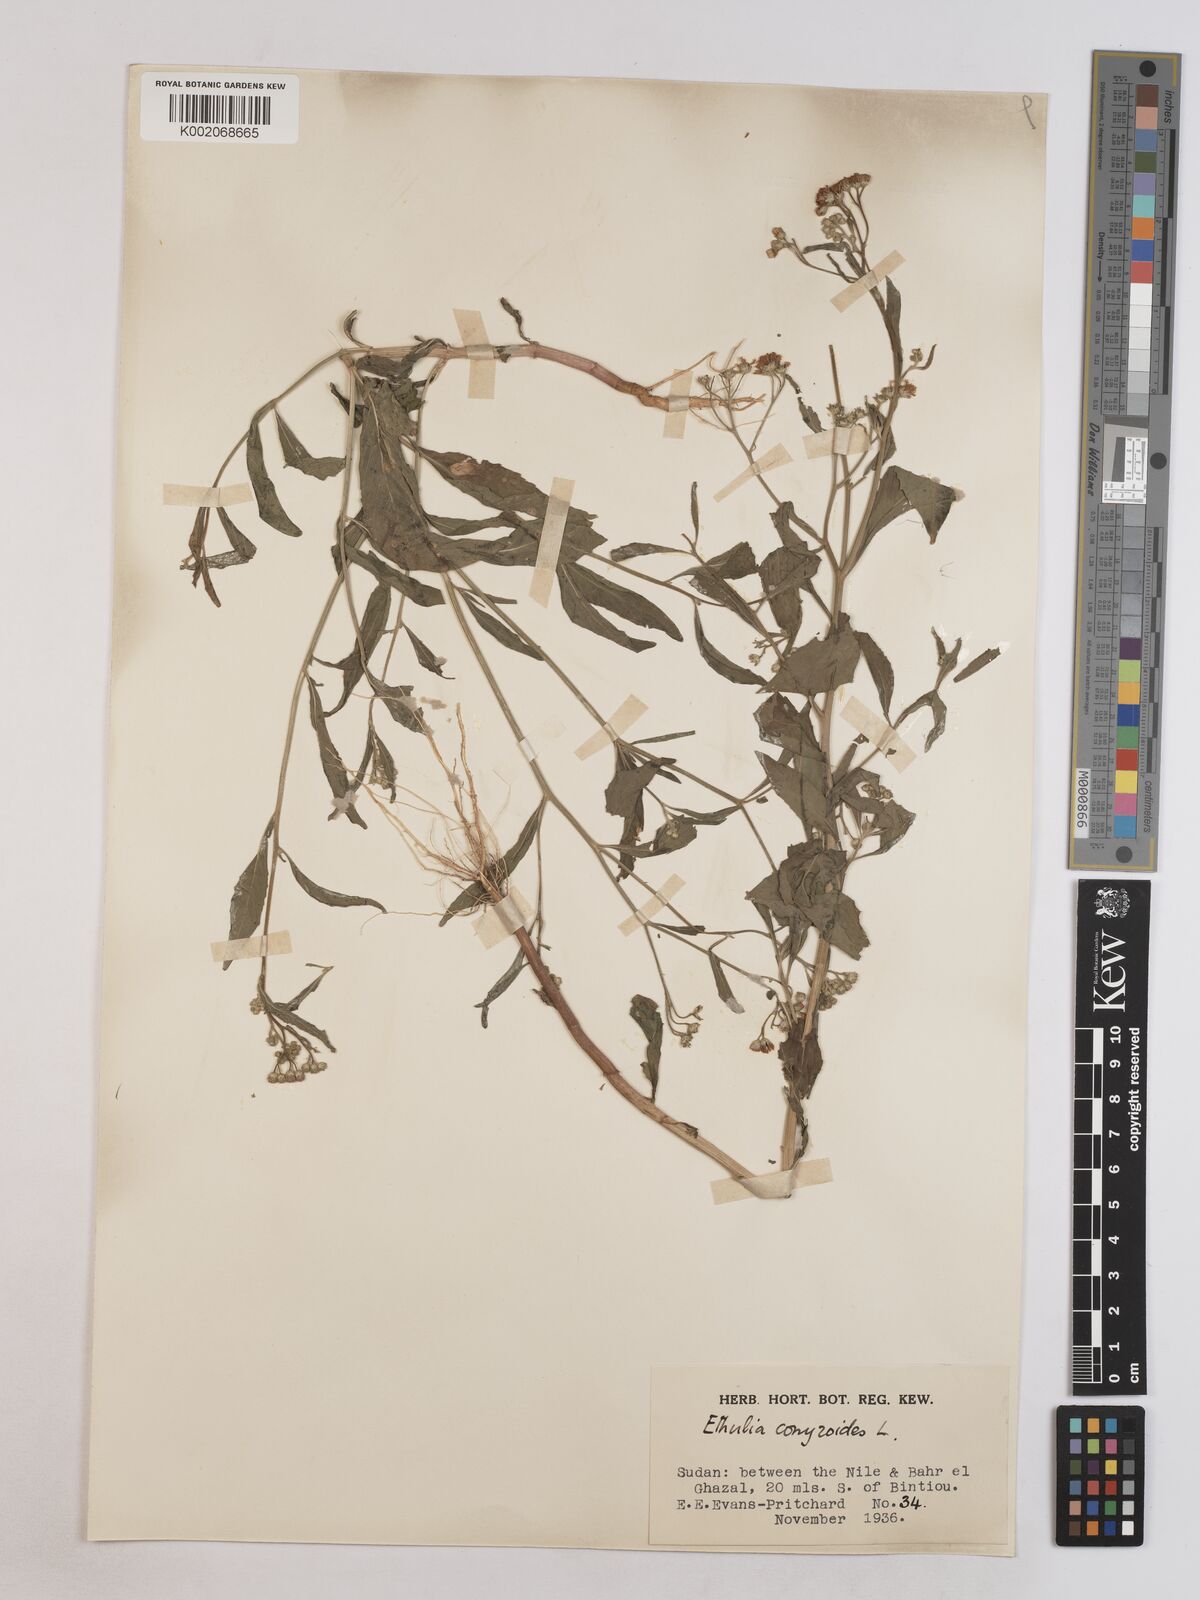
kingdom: Plantae
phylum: Tracheophyta
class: Magnoliopsida
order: Asterales
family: Asteraceae
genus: Ethulia
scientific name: Ethulia gracilis
